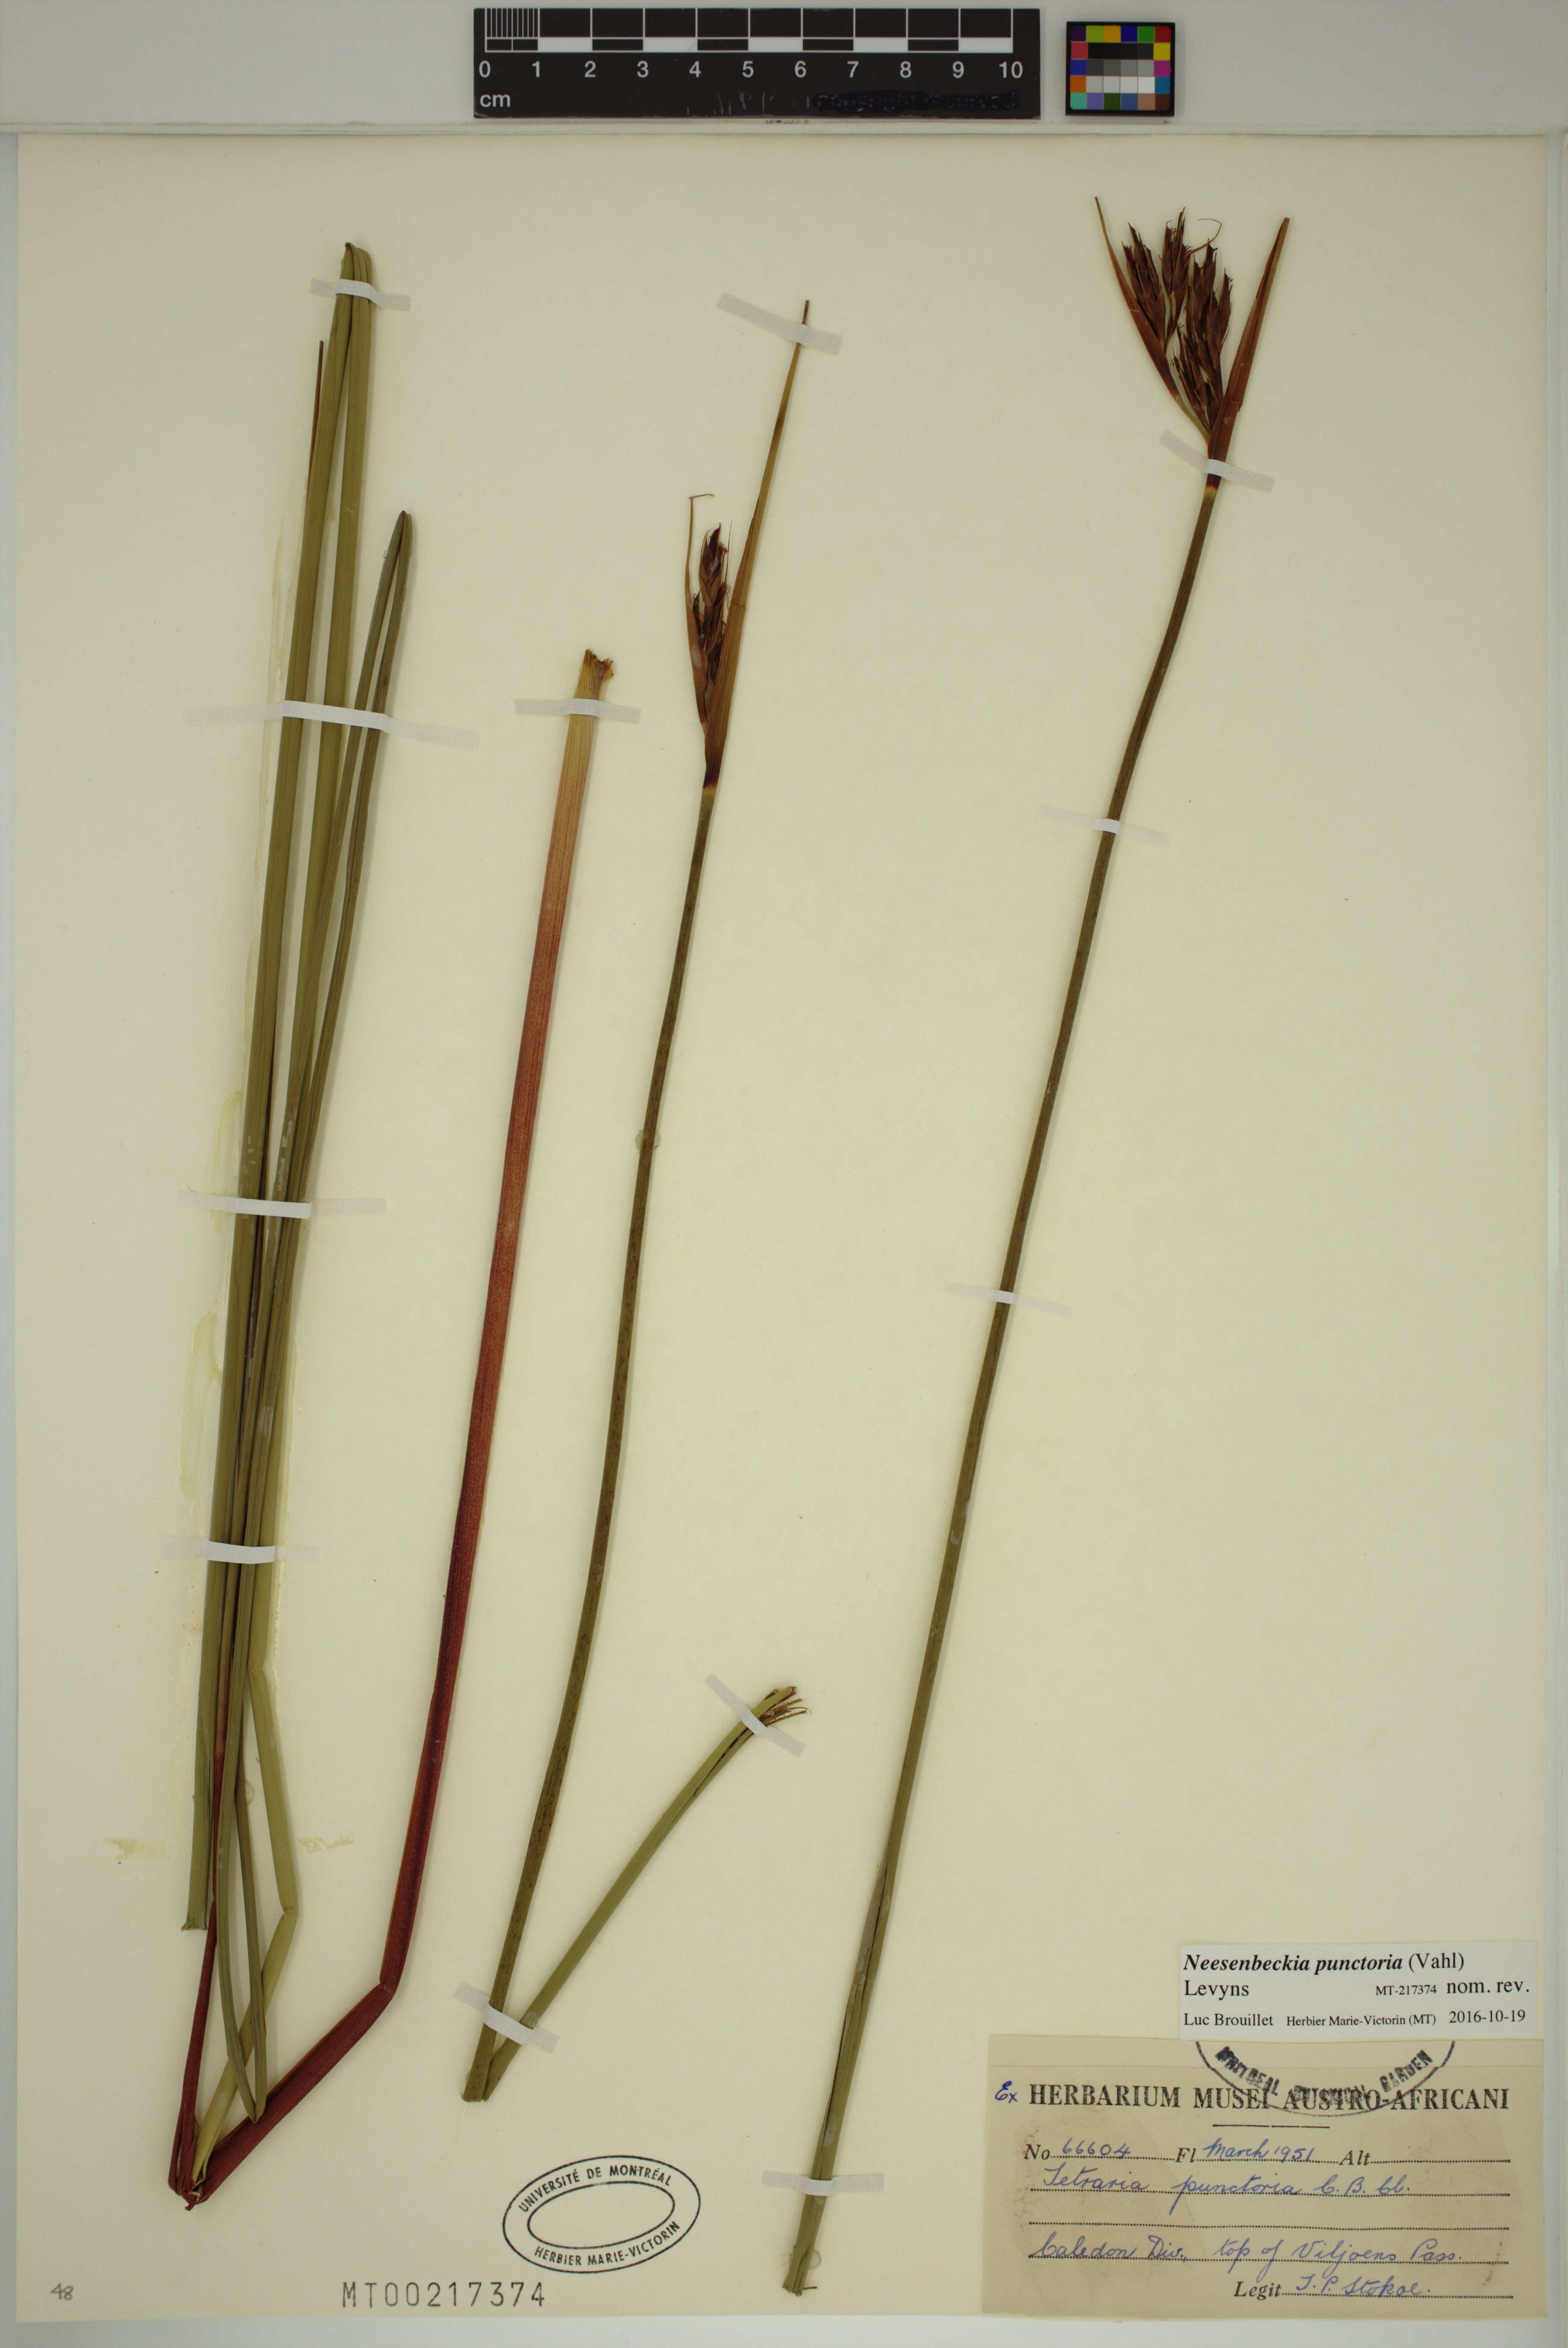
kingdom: Plantae
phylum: Tracheophyta
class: Liliopsida
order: Poales
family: Cyperaceae
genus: Neesenbeckia
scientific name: Neesenbeckia punctoria
